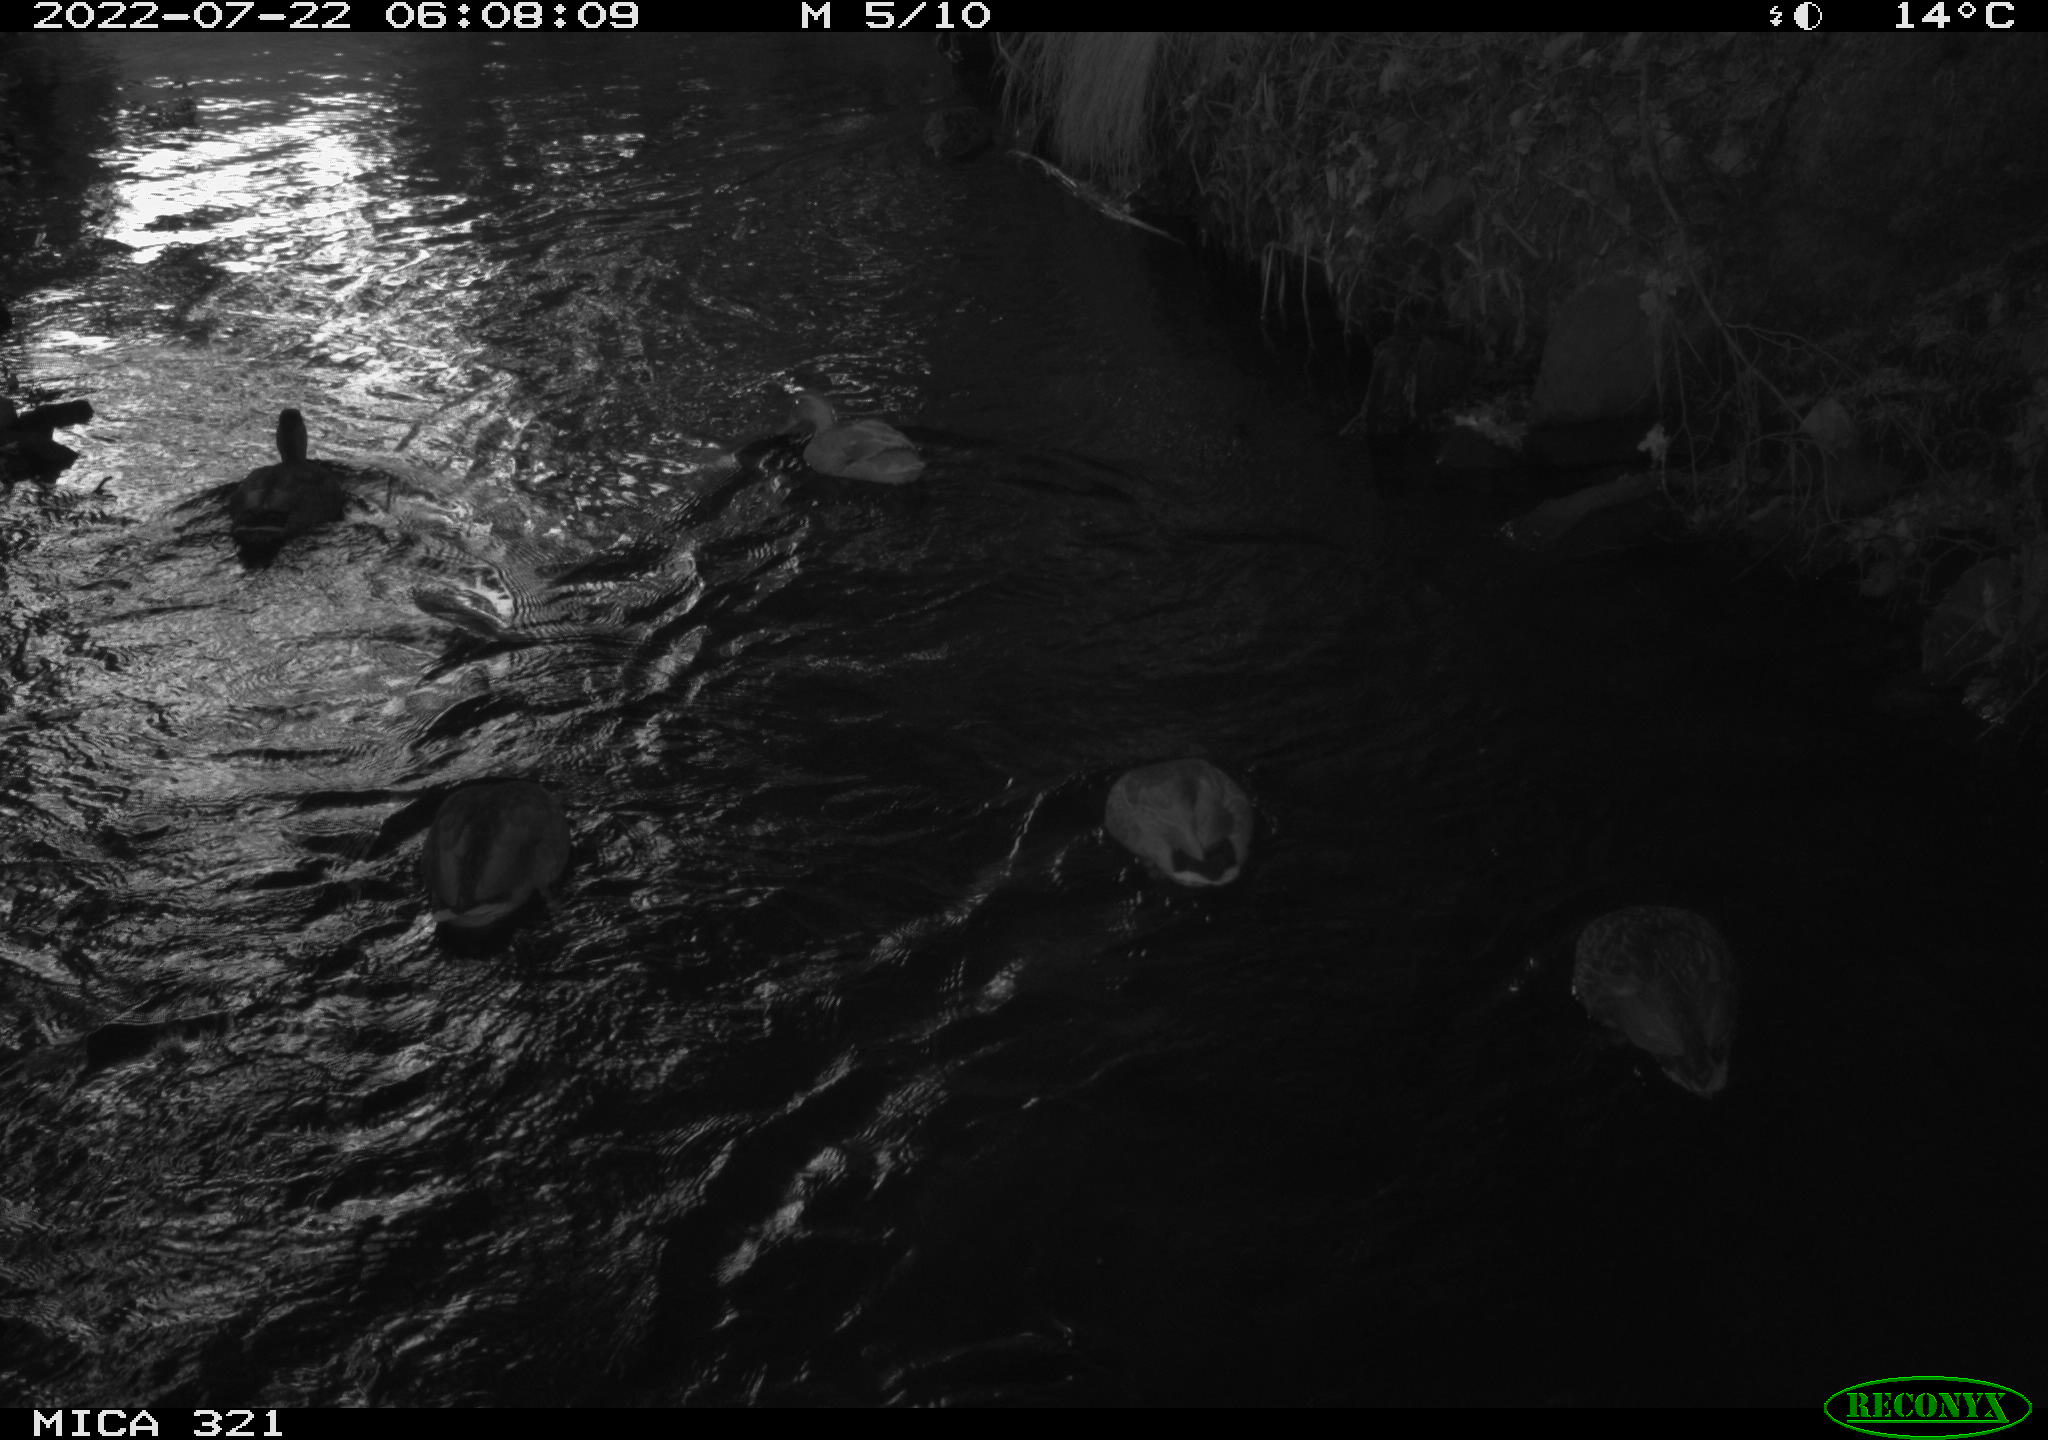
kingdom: Animalia
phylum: Chordata
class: Aves
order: Anseriformes
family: Anatidae
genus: Anas
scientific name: Anas platyrhynchos
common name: Mallard
